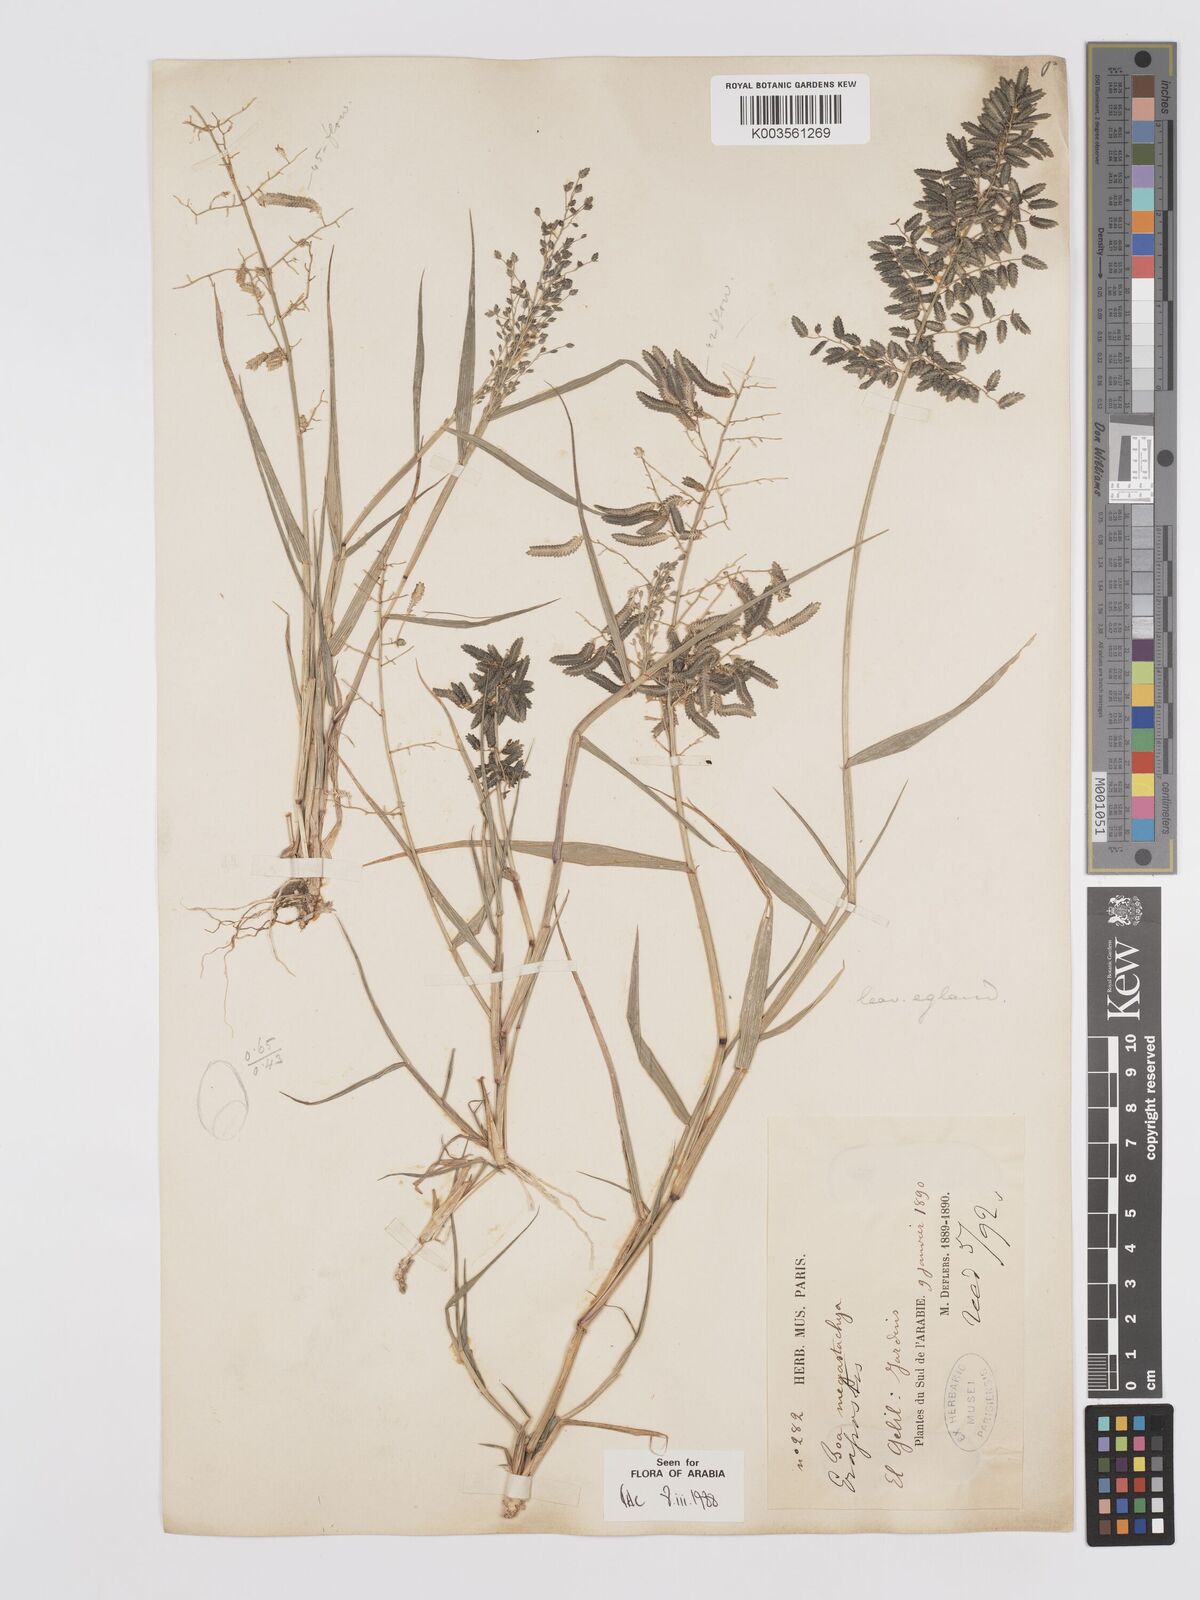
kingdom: Plantae
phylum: Tracheophyta
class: Liliopsida
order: Poales
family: Poaceae
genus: Eragrostis
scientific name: Eragrostis cilianensis
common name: Stinkgrass
